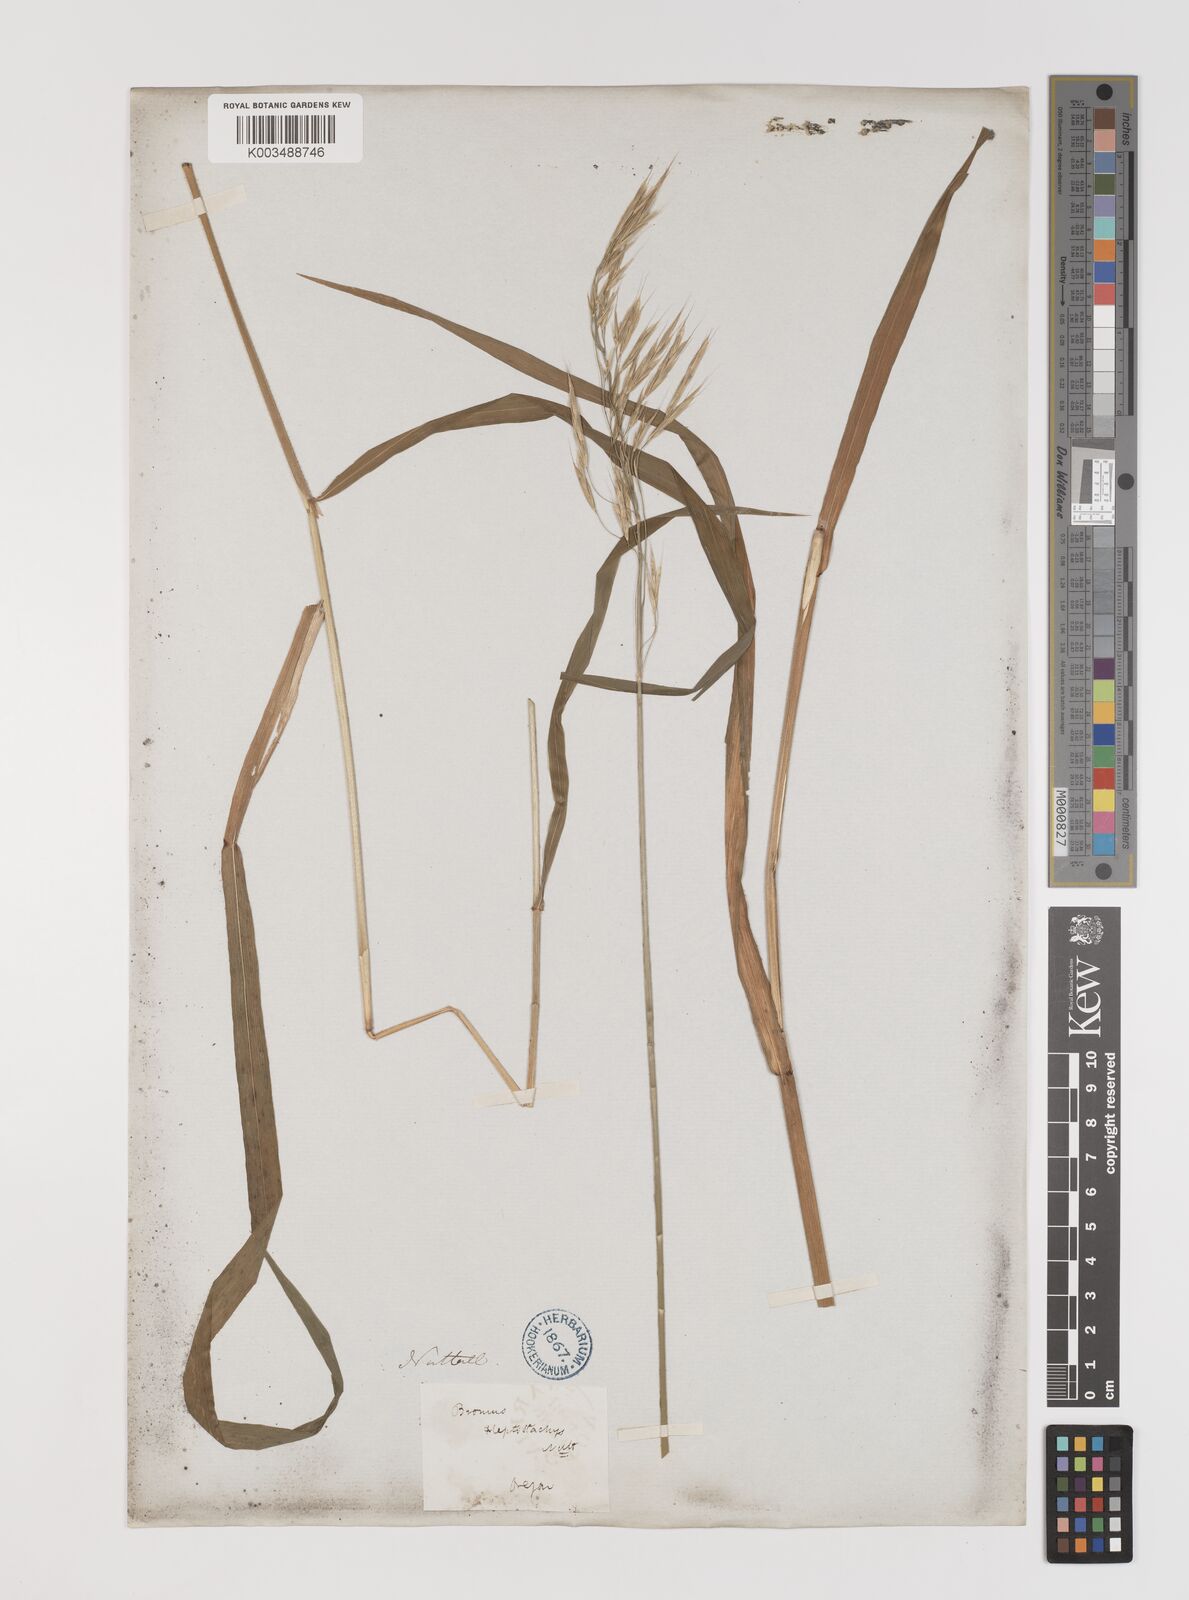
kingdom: Plantae
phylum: Tracheophyta
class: Liliopsida
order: Poales
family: Poaceae
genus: Bromus
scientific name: Bromus
